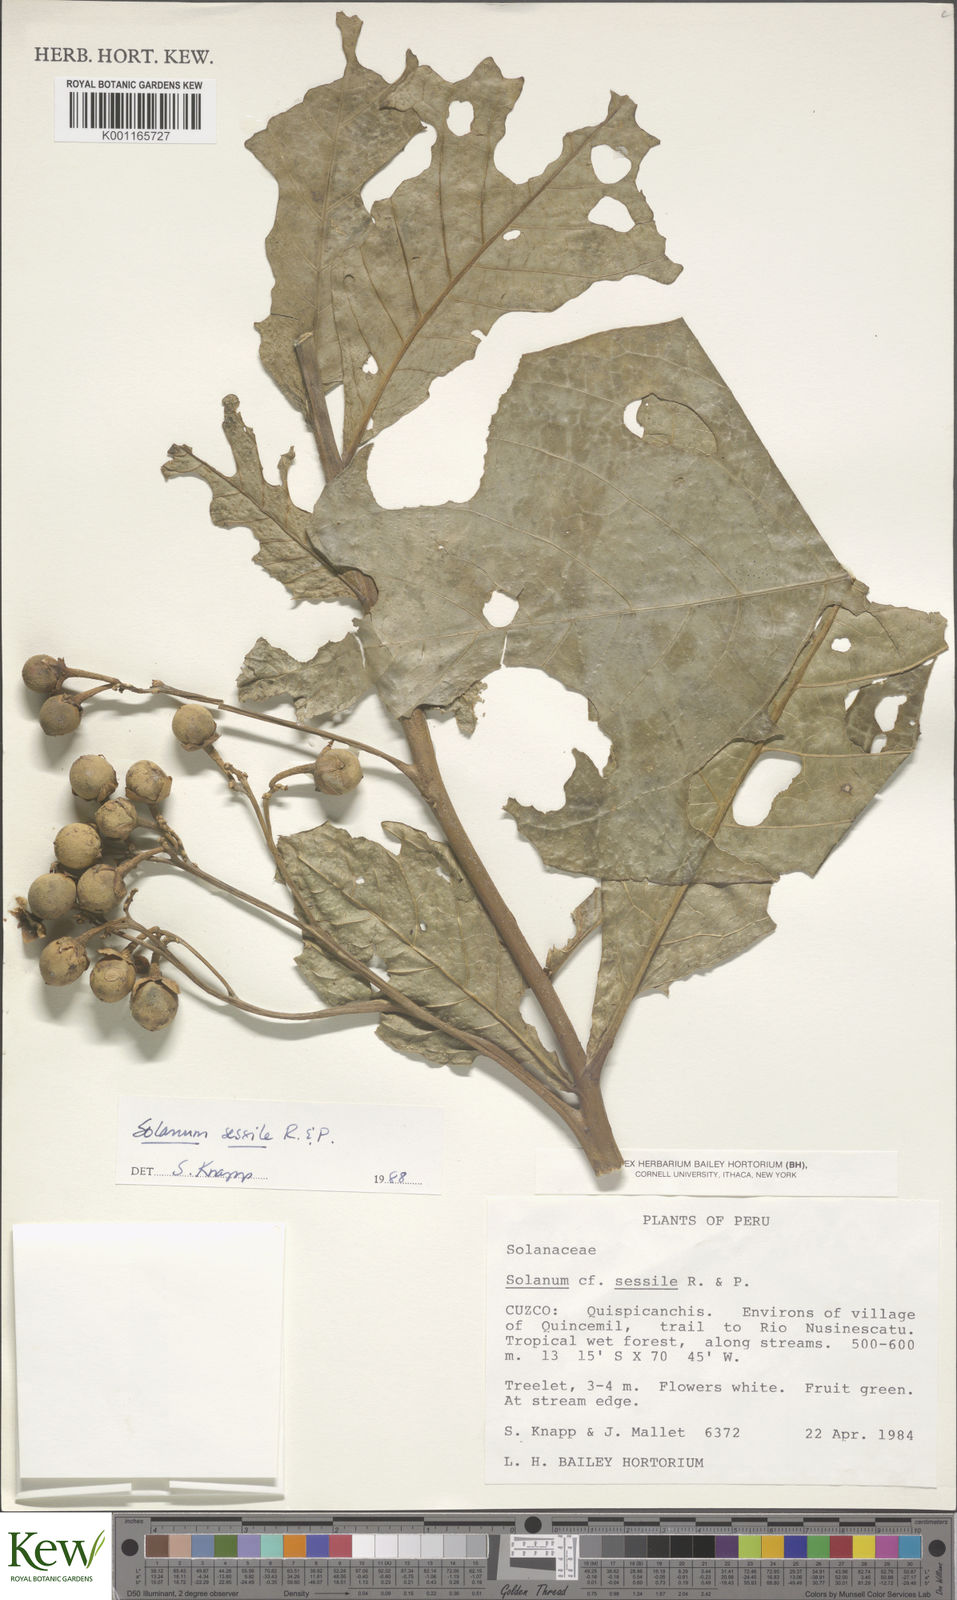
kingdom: Plantae
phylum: Tracheophyta
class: Magnoliopsida
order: Solanales
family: Solanaceae
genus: Solanum
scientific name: Solanum sessile
